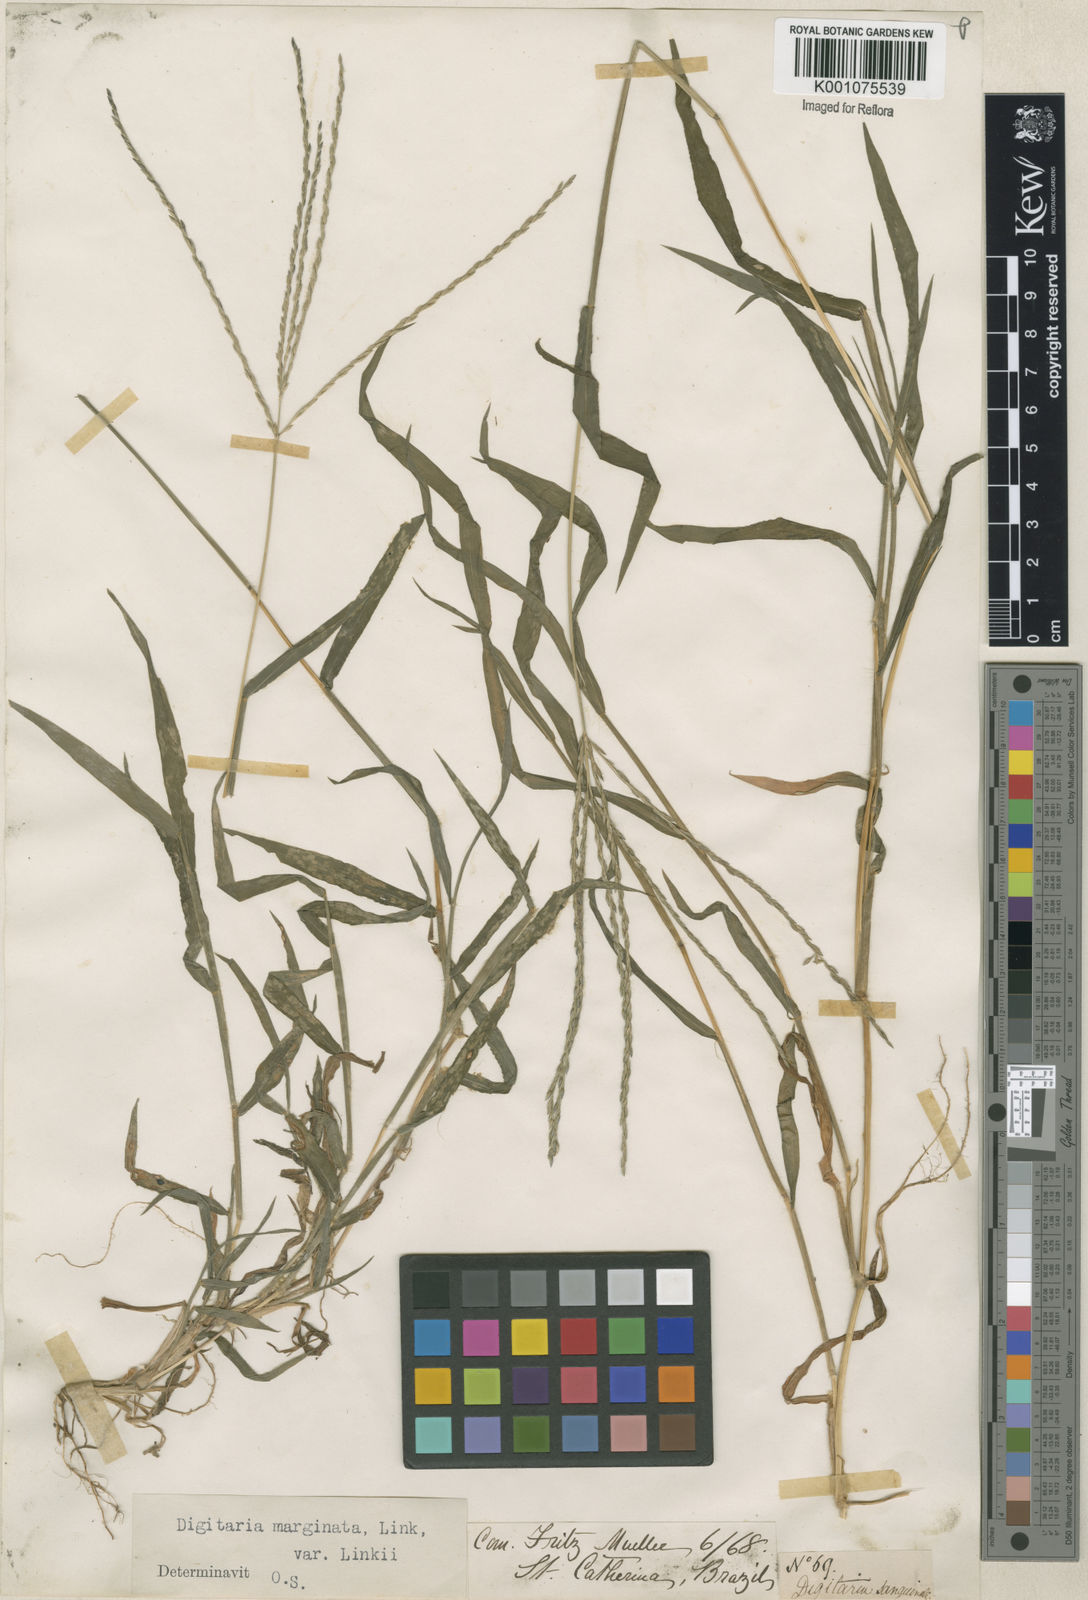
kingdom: Plantae
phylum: Tracheophyta
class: Liliopsida
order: Poales
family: Poaceae
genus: Digitaria
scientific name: Digitaria ciliaris
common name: Tropical finger-grass
